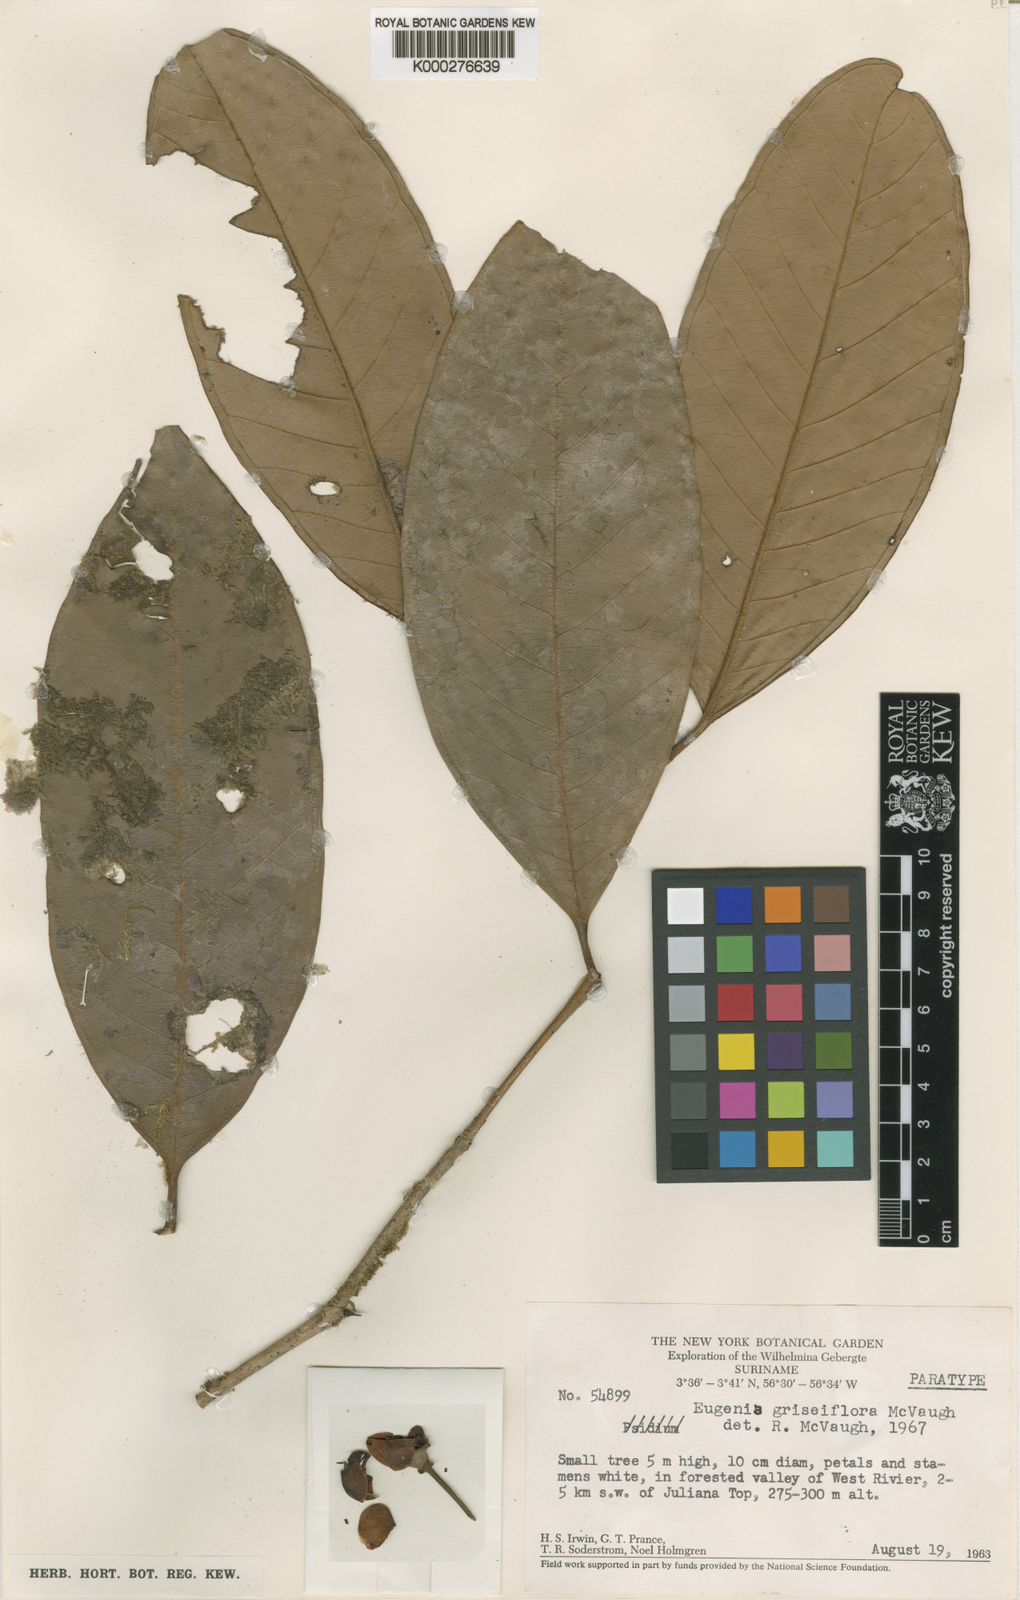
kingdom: Plantae
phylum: Tracheophyta
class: Magnoliopsida
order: Myrtales
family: Myrtaceae
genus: Eugenia
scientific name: Eugenia griseiflora
